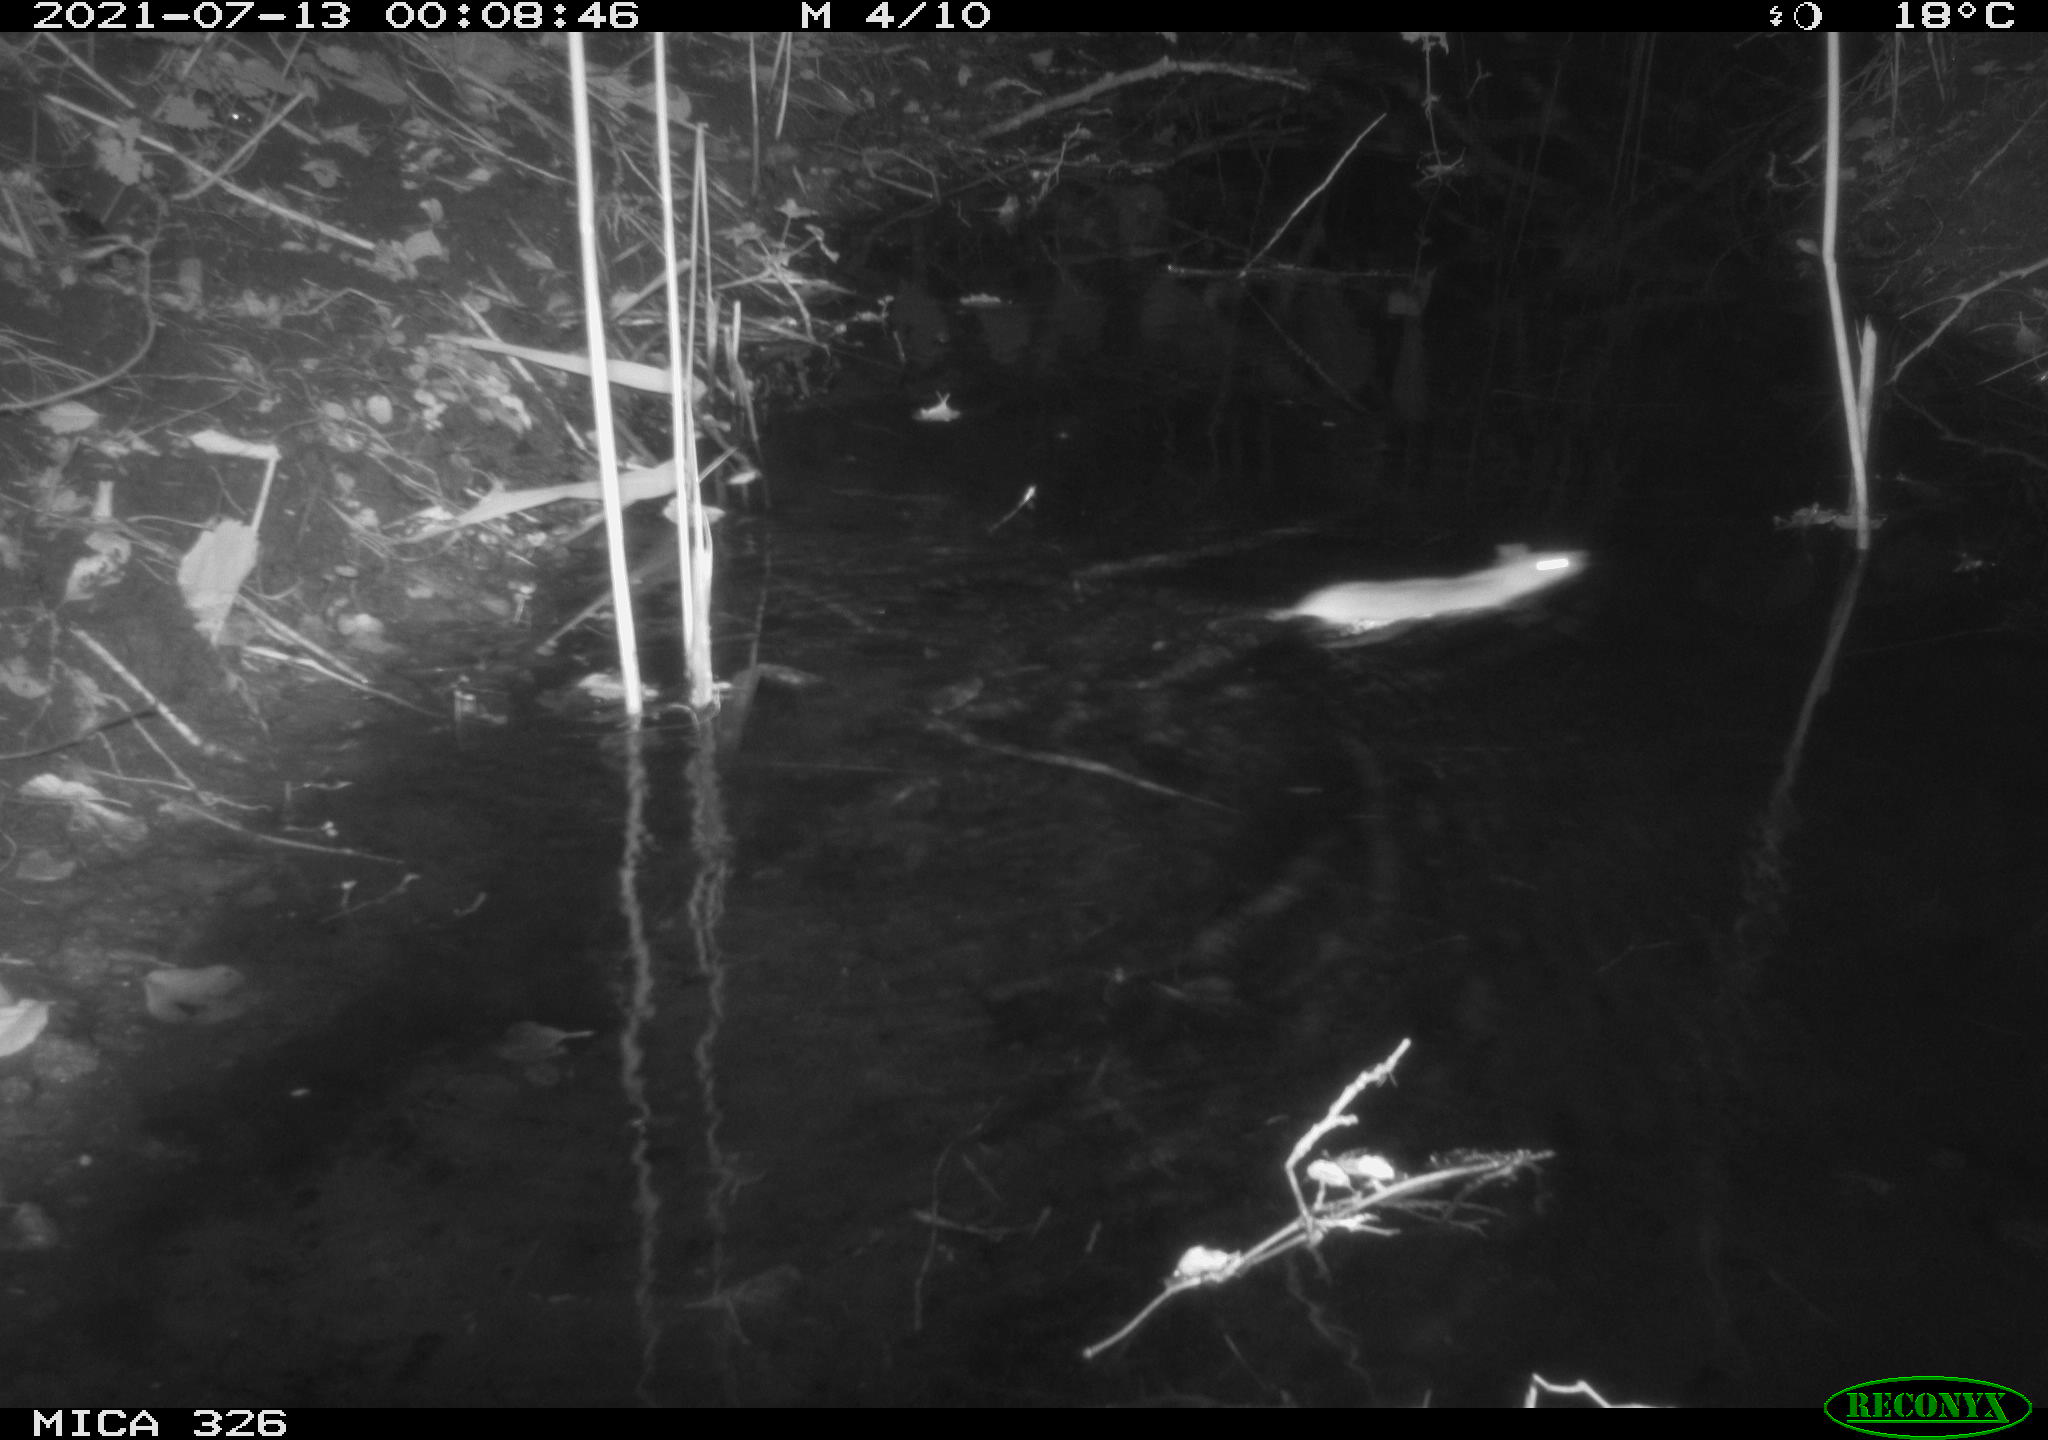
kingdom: Animalia
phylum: Chordata
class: Mammalia
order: Rodentia
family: Muridae
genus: Rattus
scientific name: Rattus norvegicus
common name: Brown rat
